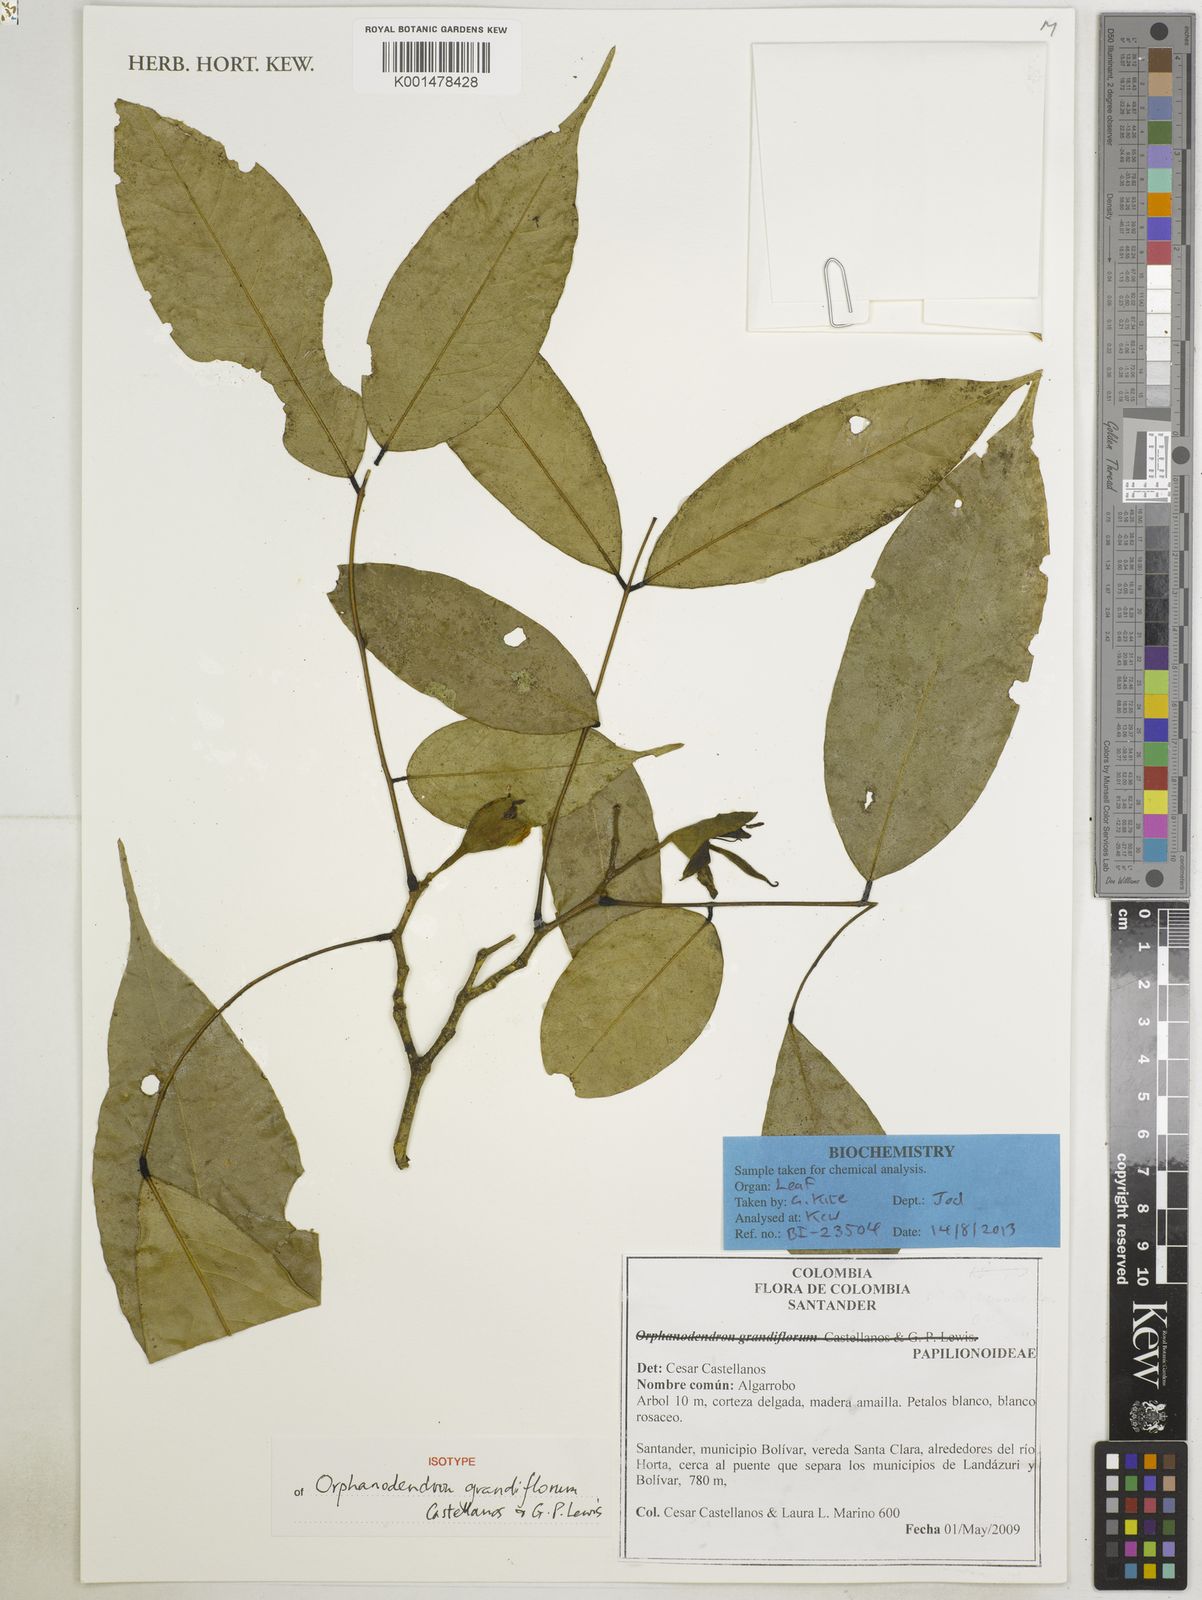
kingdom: Plantae
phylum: Tracheophyta
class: Magnoliopsida
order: Fabales
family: Fabaceae
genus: Orphanodendron
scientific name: Orphanodendron grandiflorum
